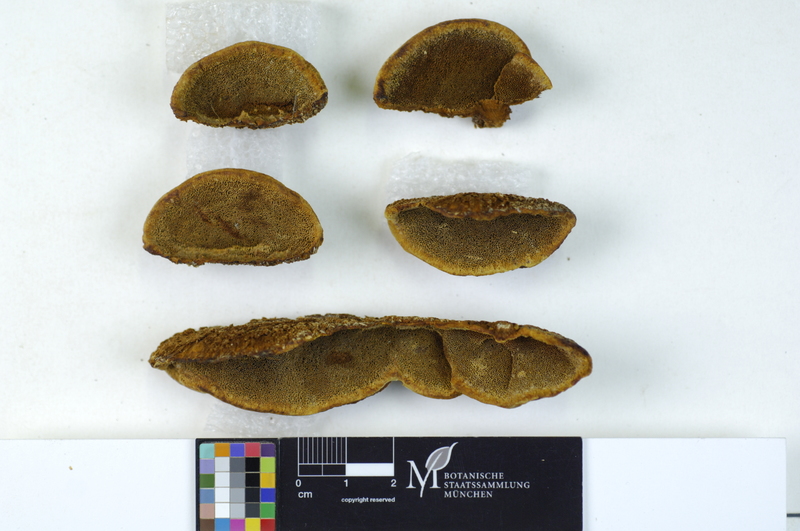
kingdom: Fungi
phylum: Basidiomycota
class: Agaricomycetes
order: Hymenochaetales
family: Hymenochaetaceae
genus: Phellinus
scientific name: Phellinus chrysoloma
